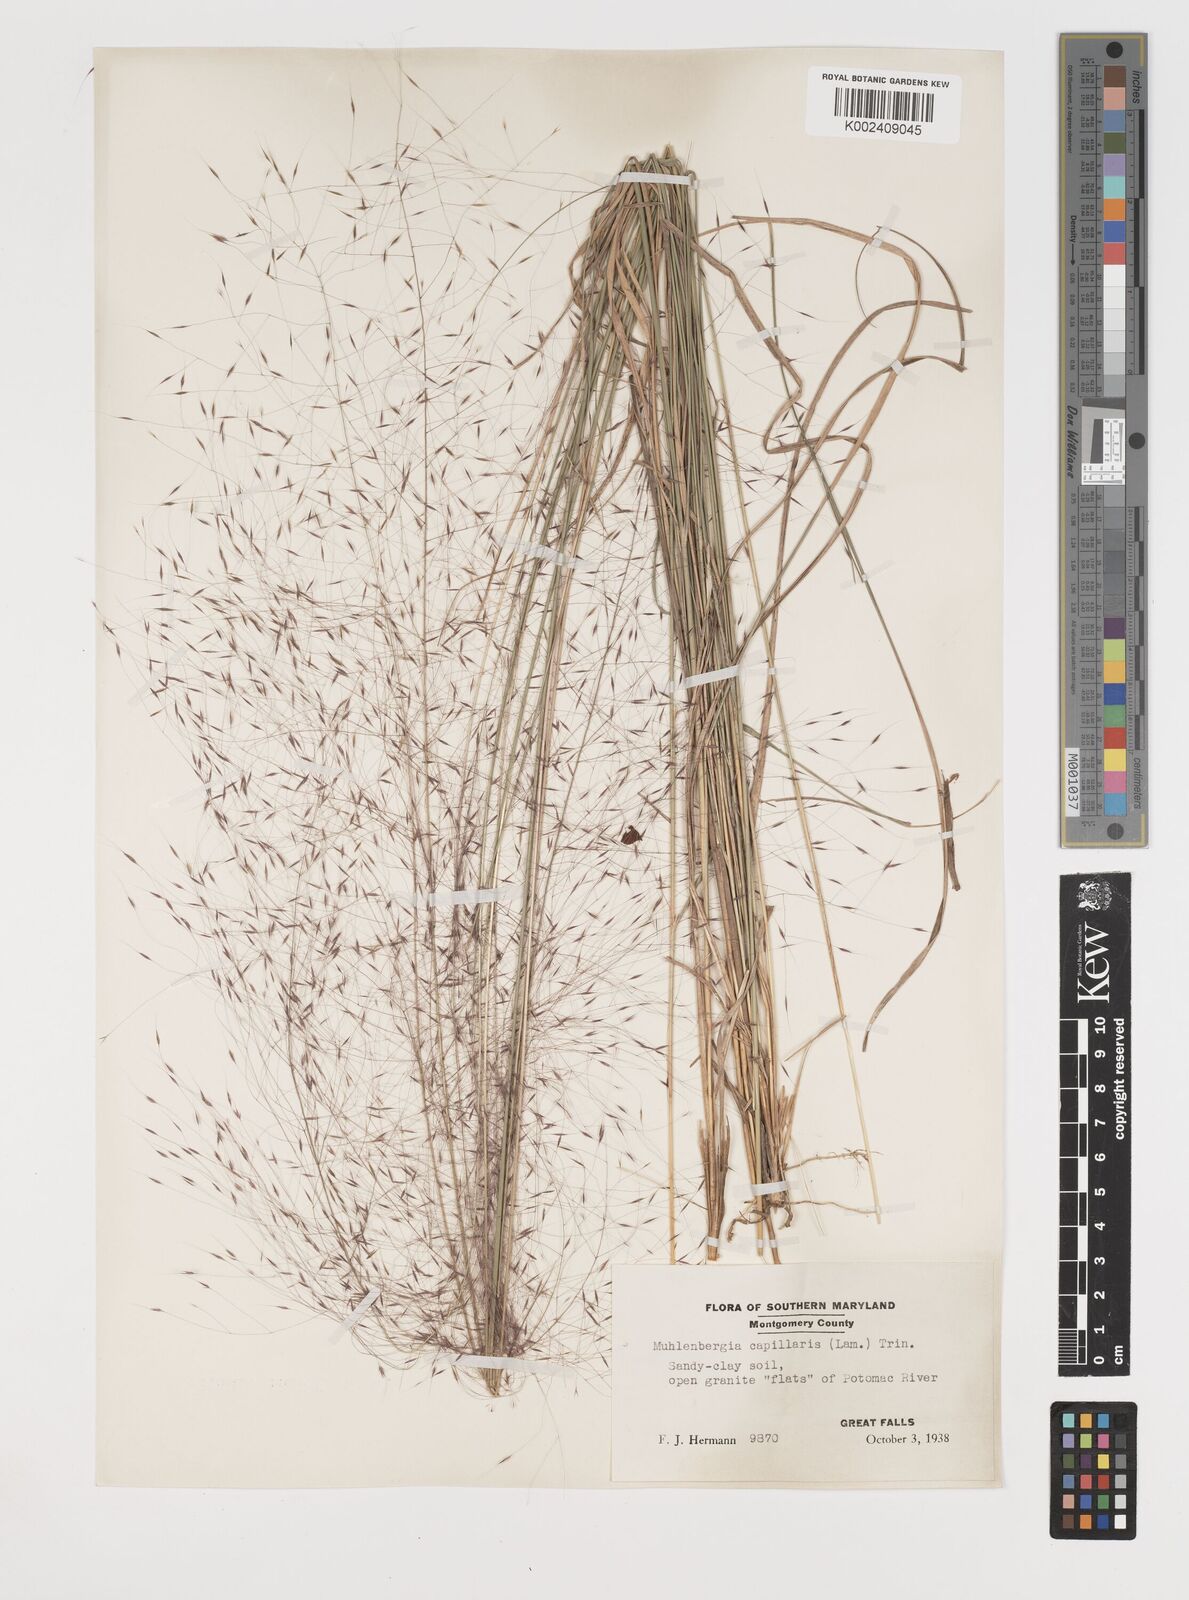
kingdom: Plantae
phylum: Tracheophyta
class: Liliopsida
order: Poales
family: Poaceae
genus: Muhlenbergia
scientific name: Muhlenbergia capillaris
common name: Purple grass
